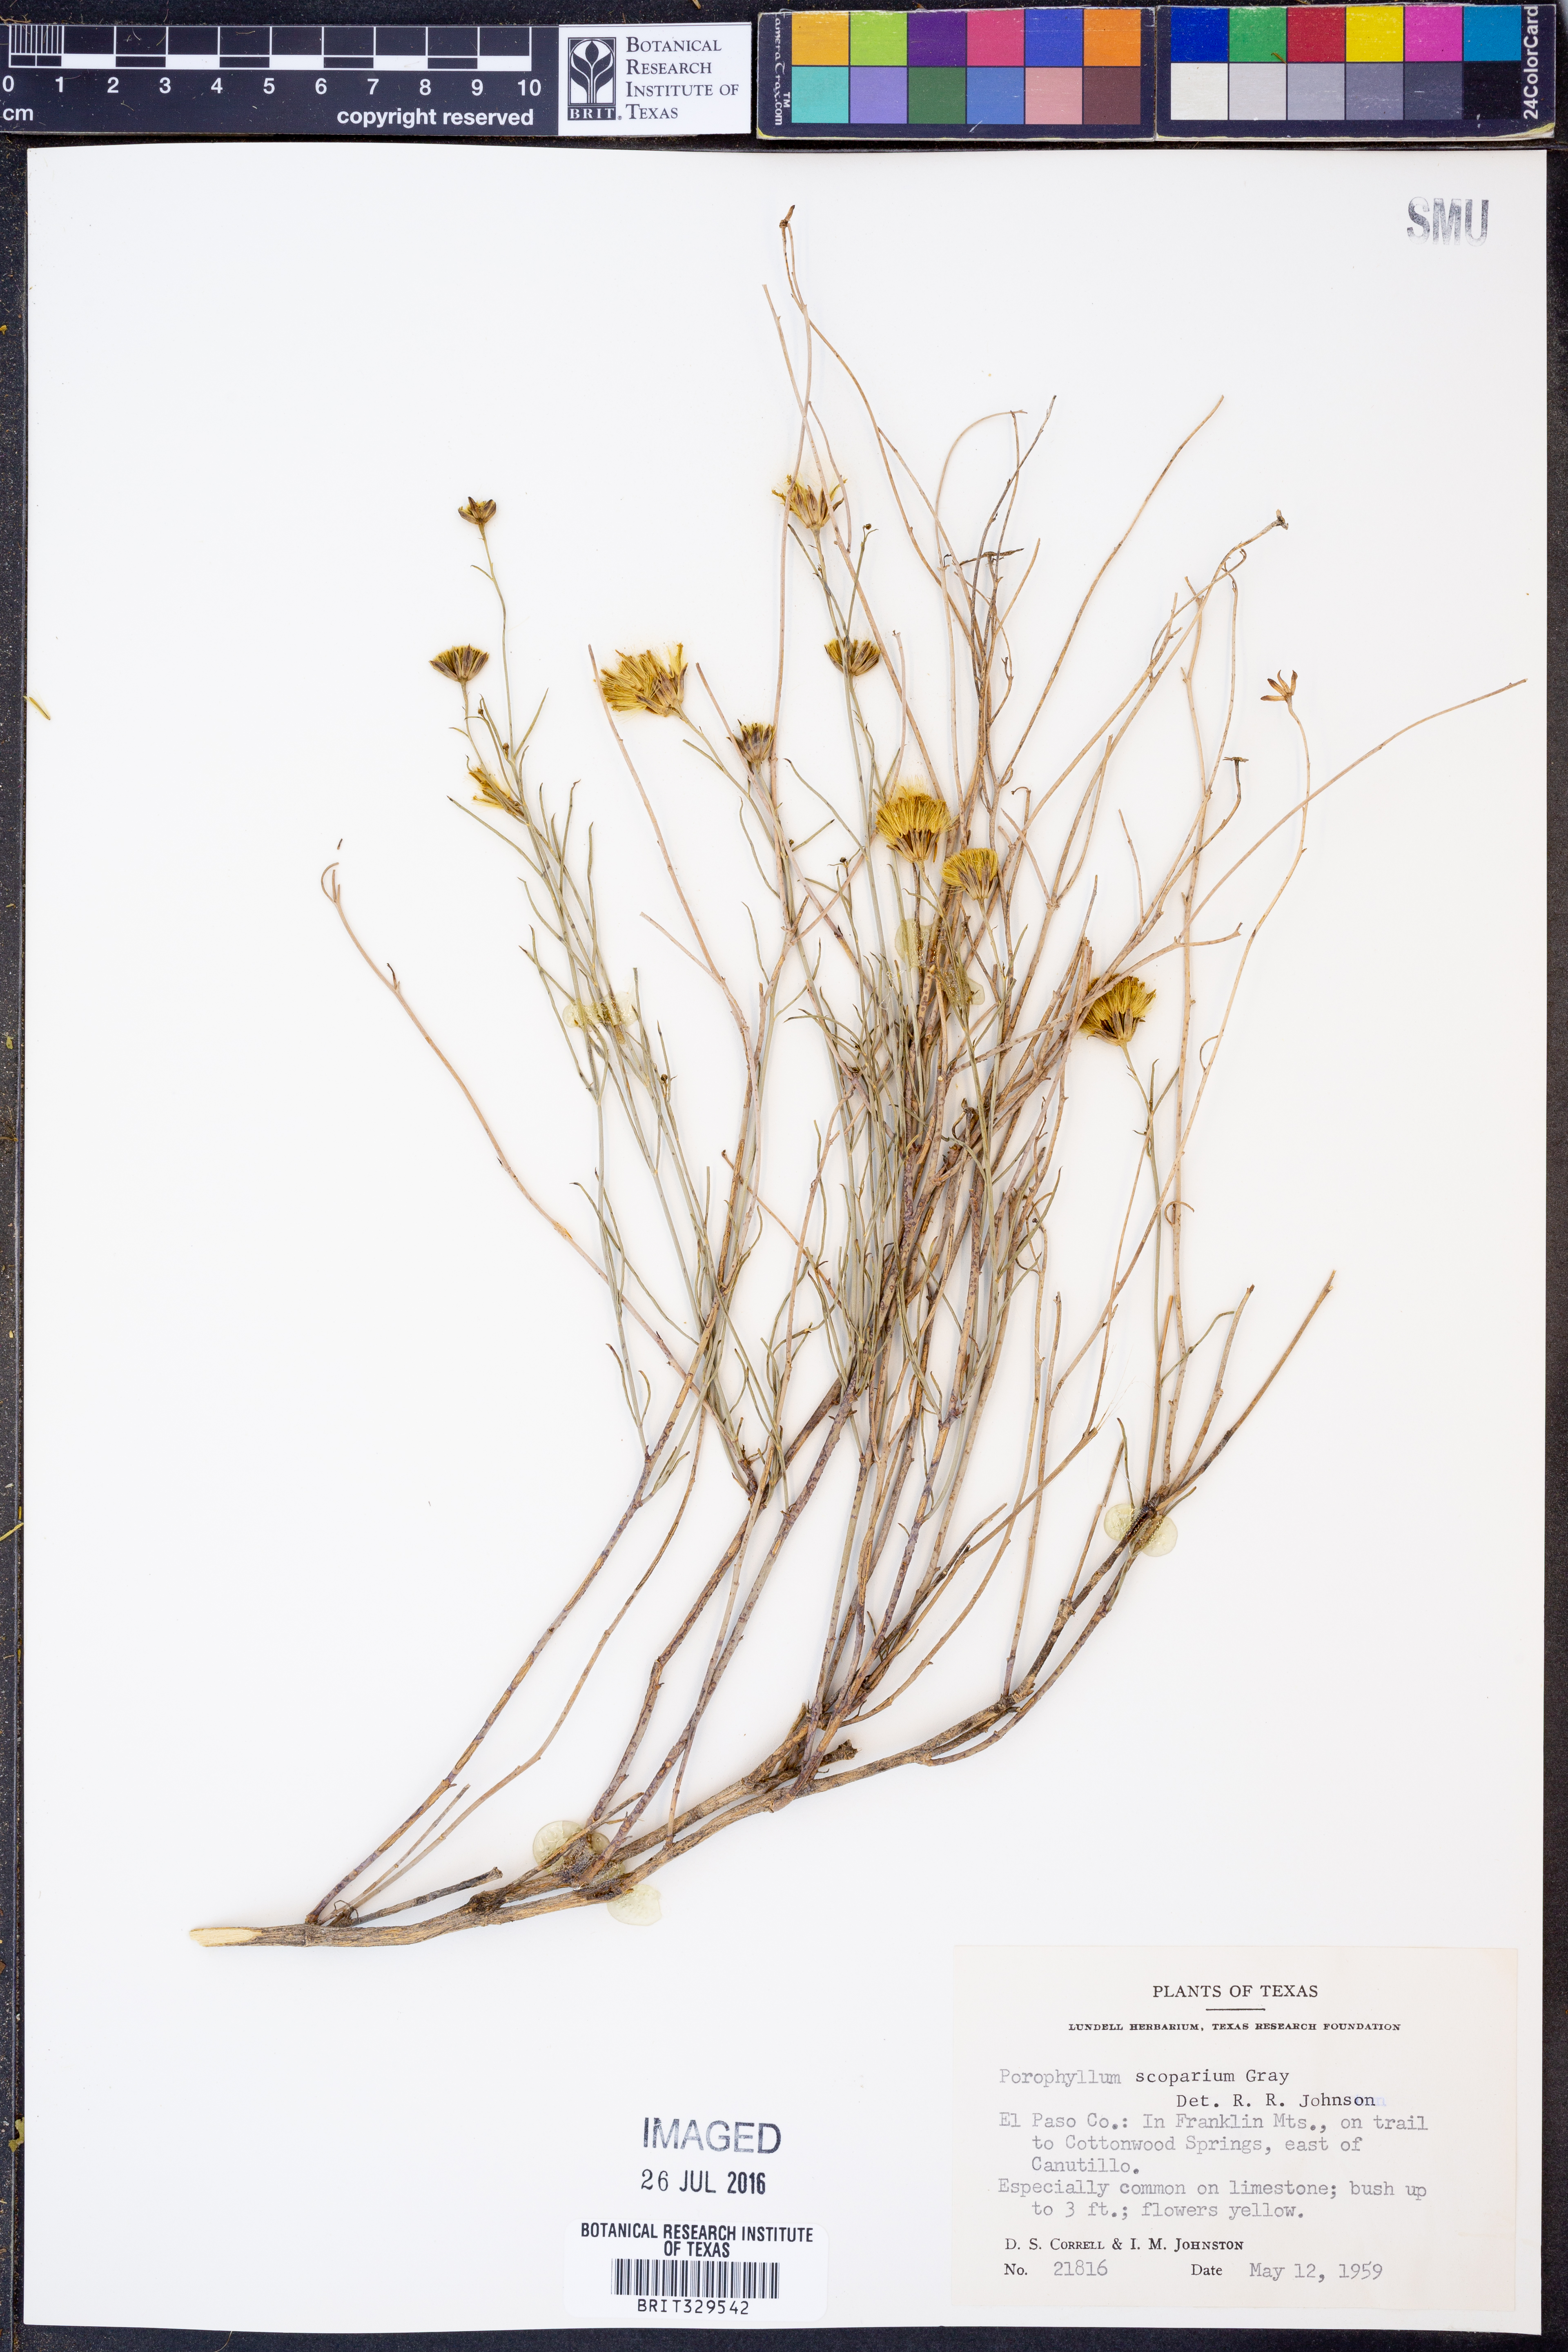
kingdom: Plantae
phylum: Tracheophyta
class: Magnoliopsida
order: Asterales
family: Asteraceae
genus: Porophyllum
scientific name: Porophyllum scoparium
